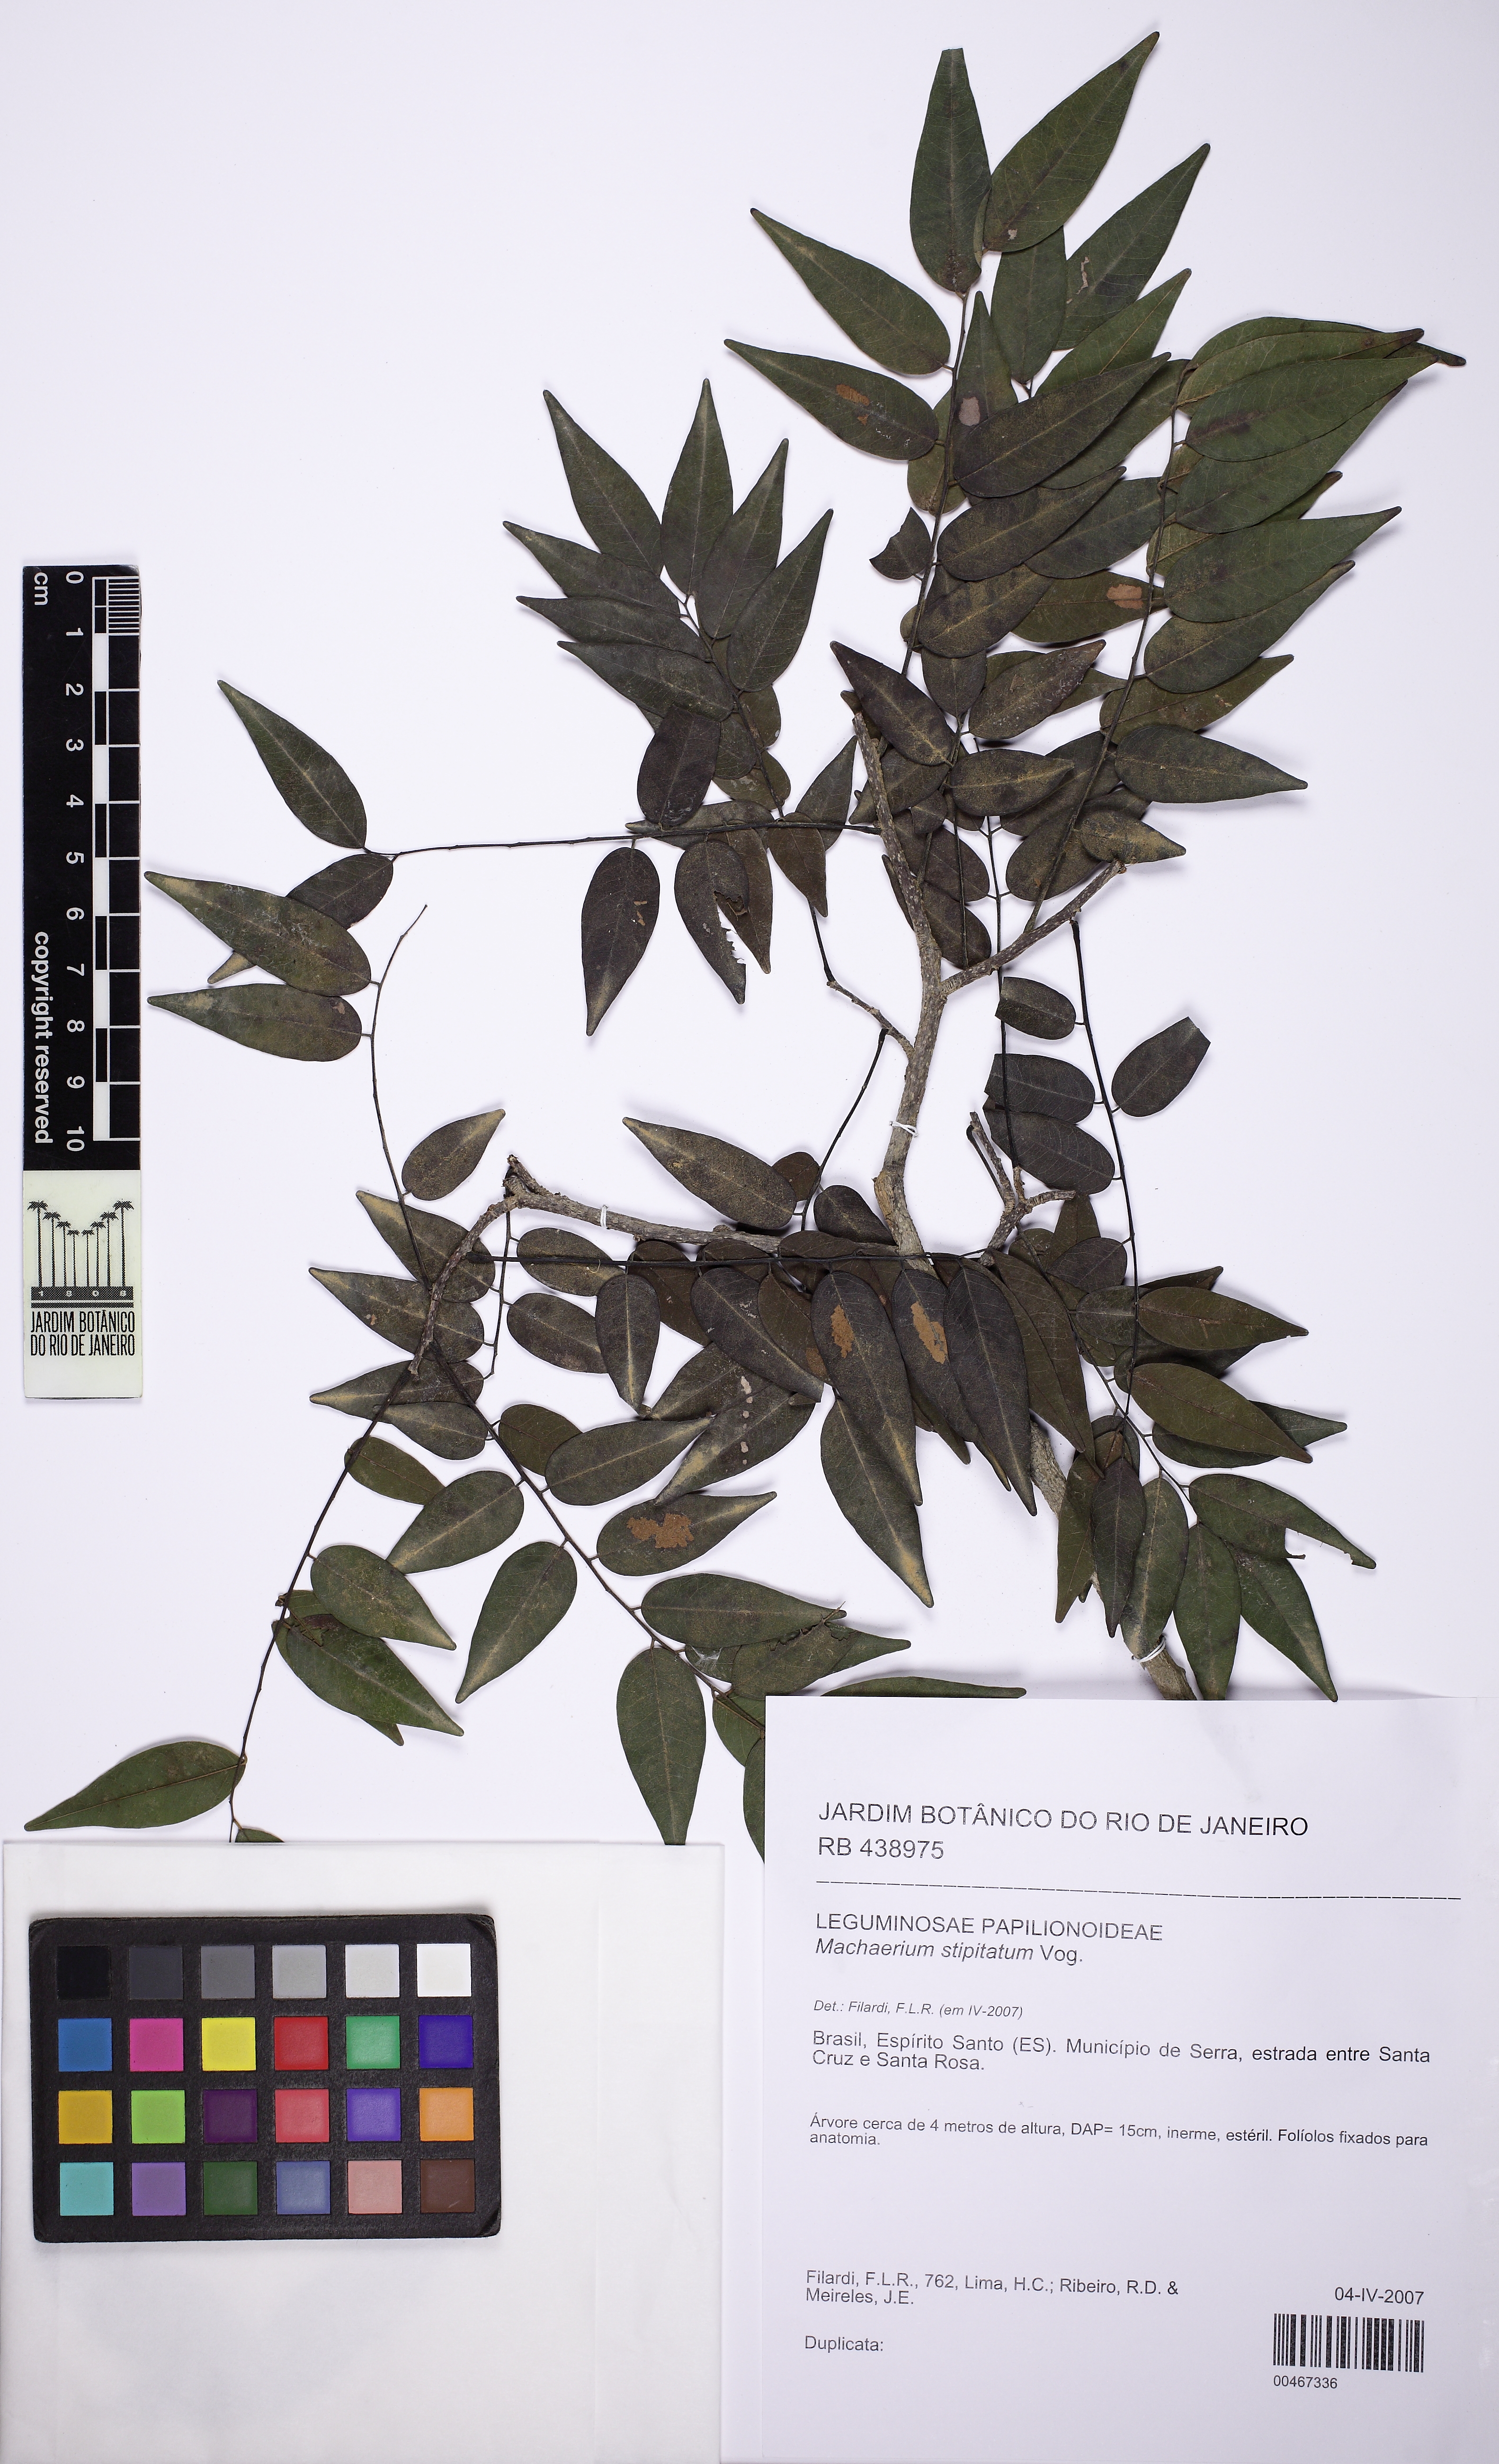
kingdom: Plantae
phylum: Tracheophyta
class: Magnoliopsida
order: Fabales
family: Fabaceae
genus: Machaerium
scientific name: Machaerium stipitatum
